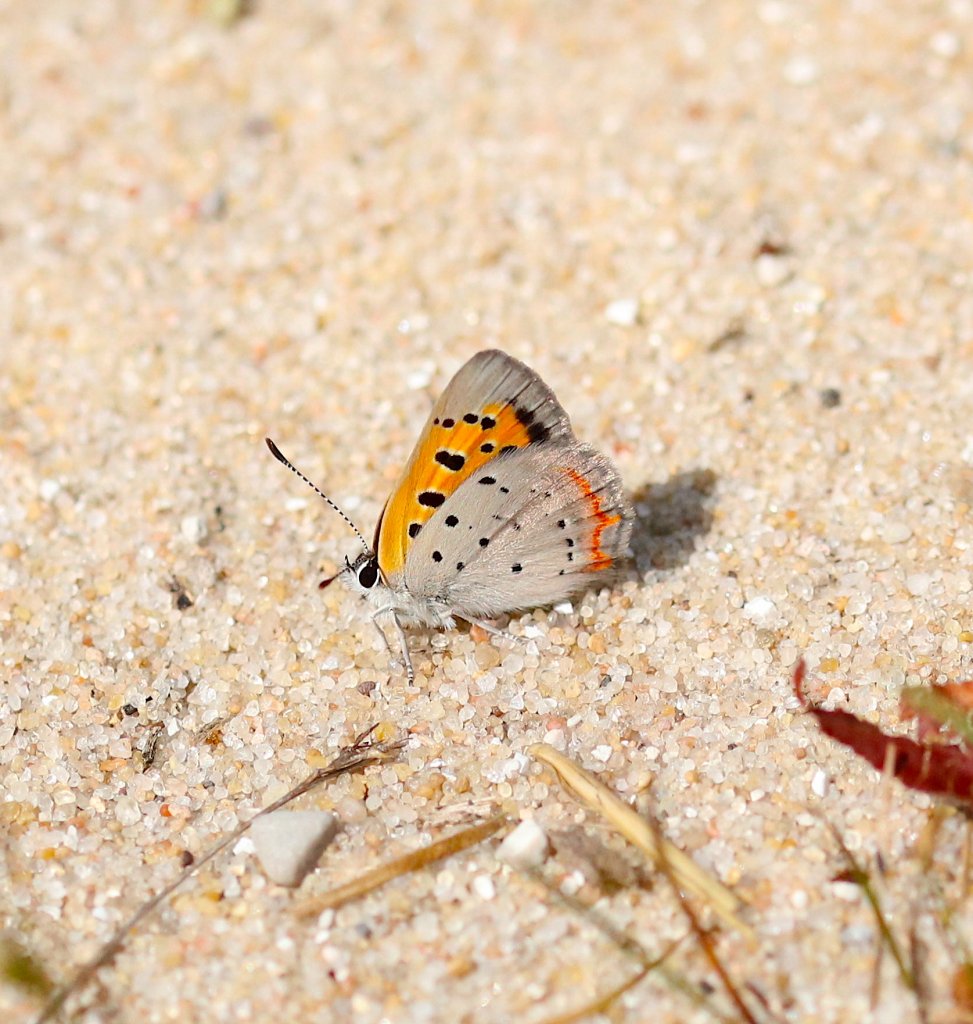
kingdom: Animalia
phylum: Arthropoda
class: Insecta
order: Lepidoptera
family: Lycaenidae
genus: Lycaena
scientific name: Lycaena phlaeas
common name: American Copper
